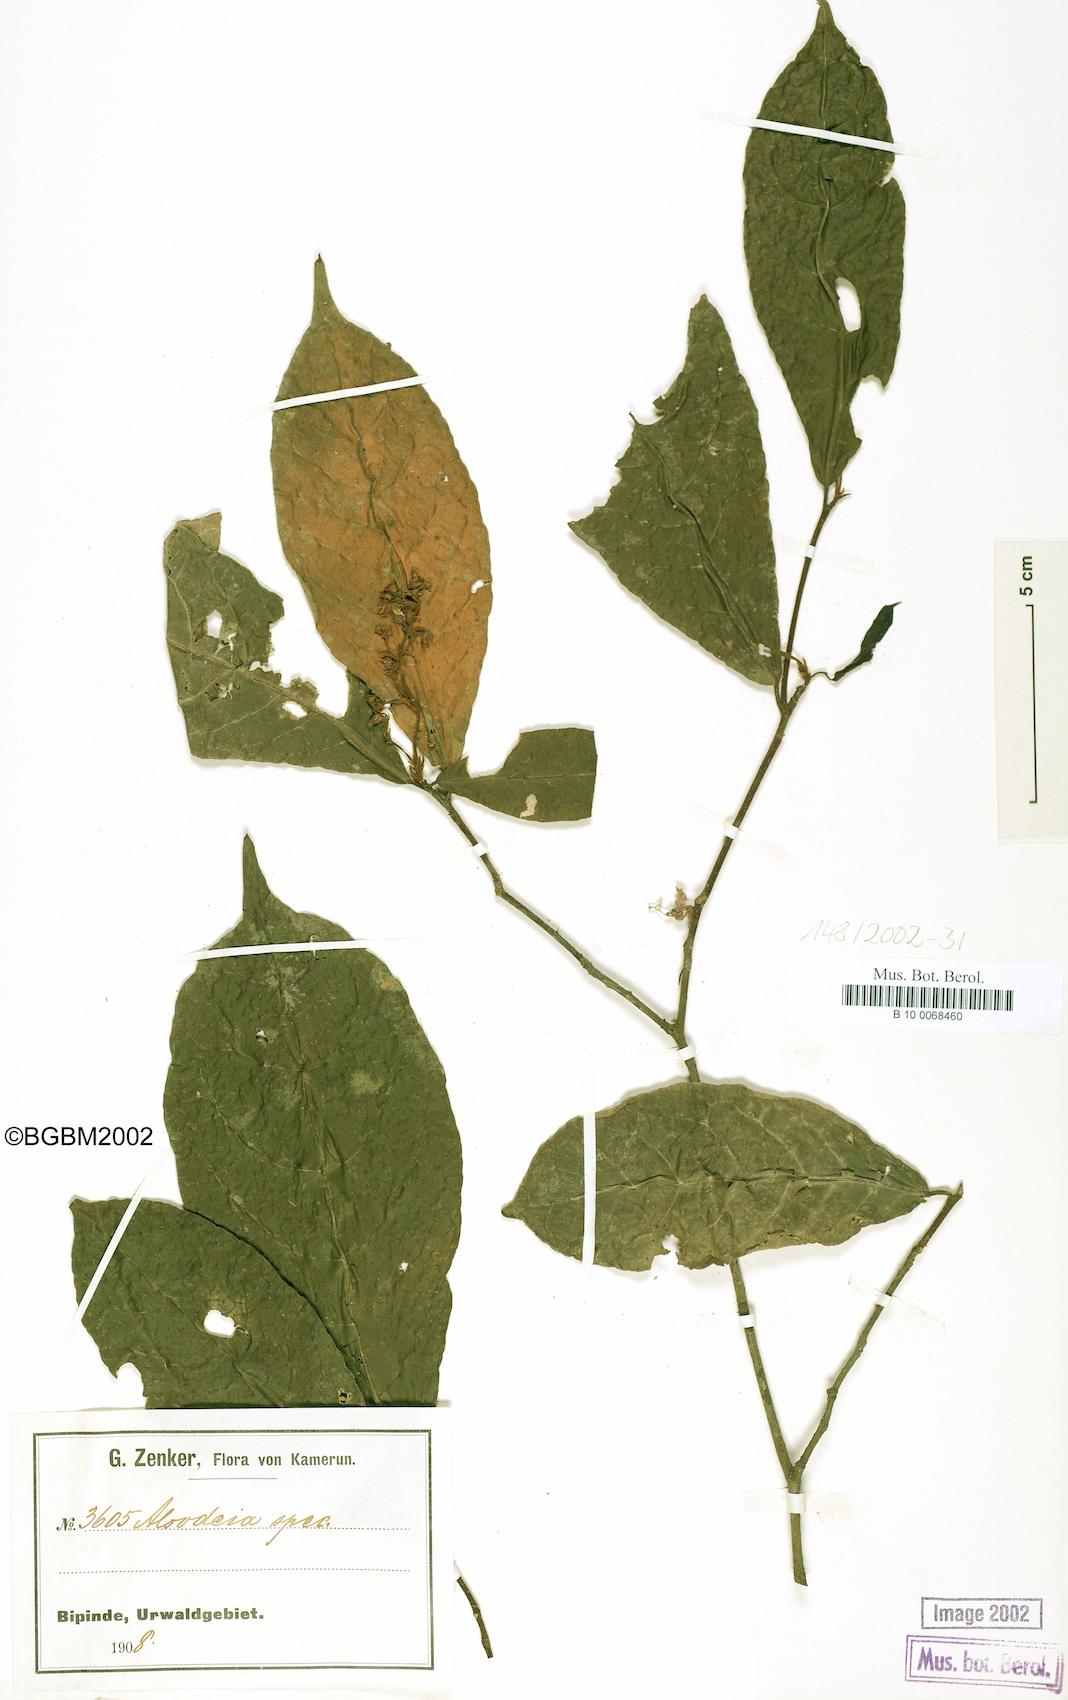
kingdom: Plantae
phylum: Tracheophyta
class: Magnoliopsida
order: Solanales
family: Solanaceae
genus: Alsodeia
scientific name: Alsodeia
